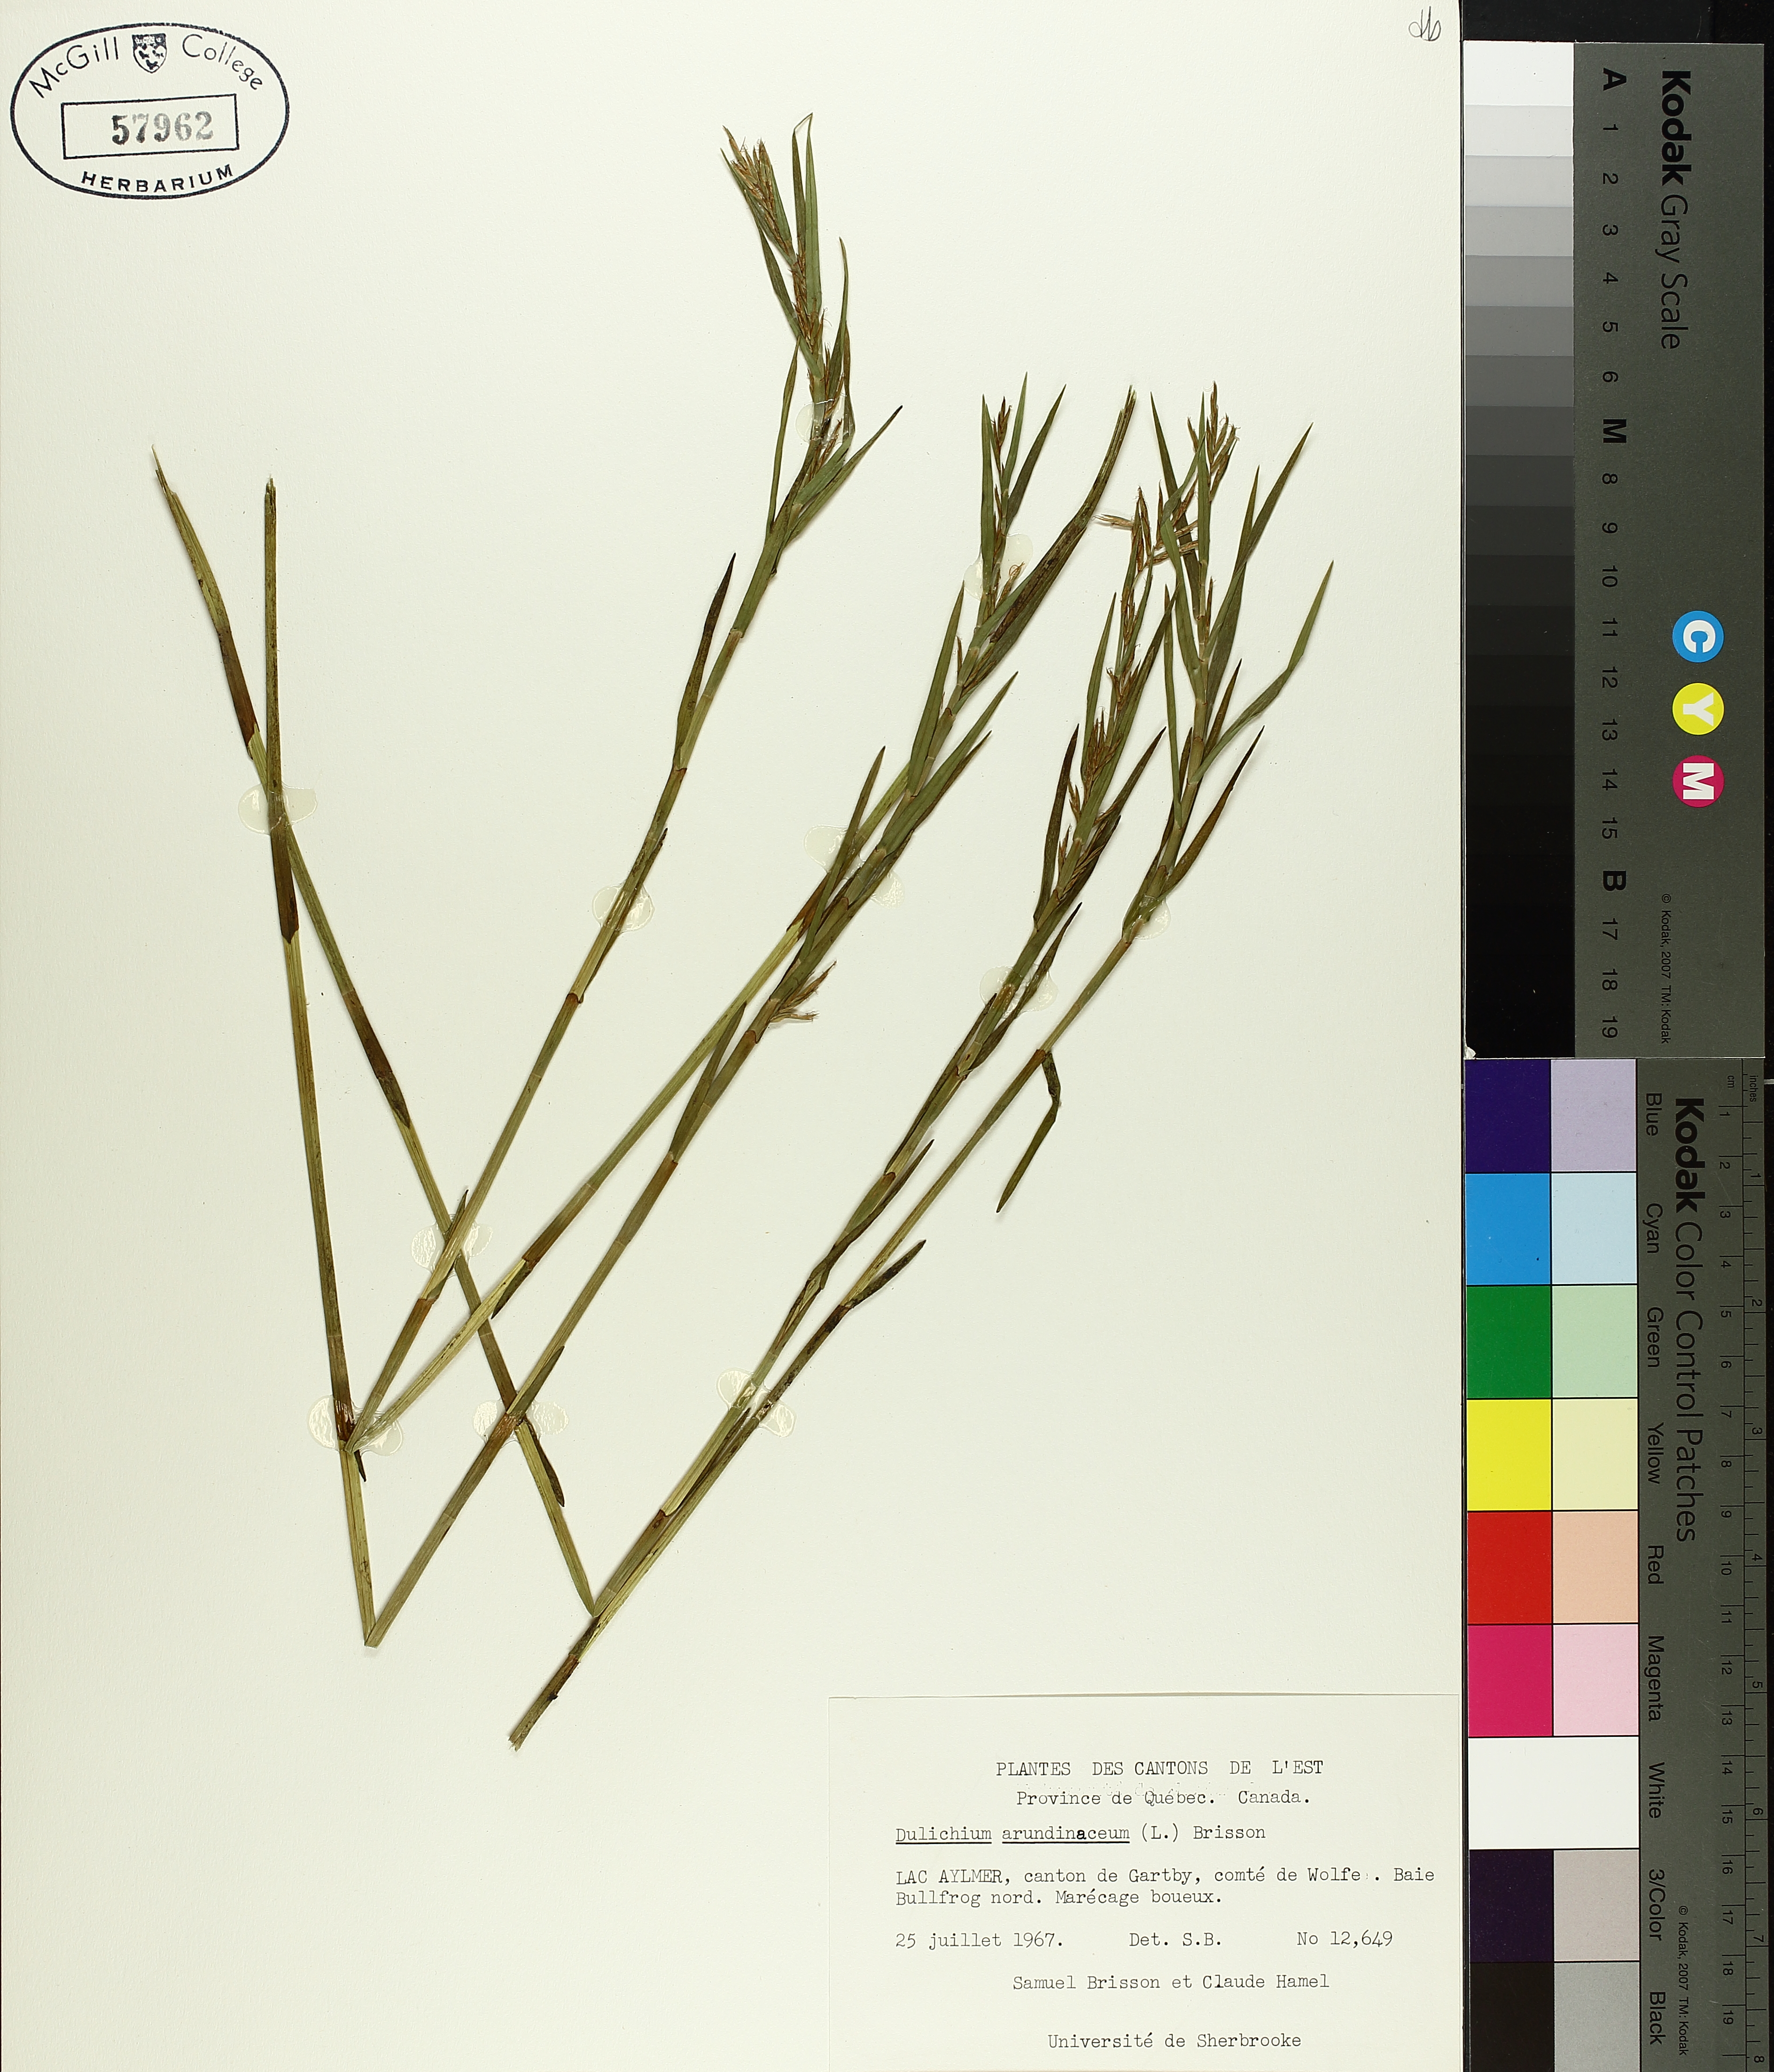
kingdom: Plantae
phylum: Tracheophyta
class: Liliopsida
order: Poales
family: Cyperaceae
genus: Dulichium
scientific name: Dulichium arundinaceum
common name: Three-way sedge
